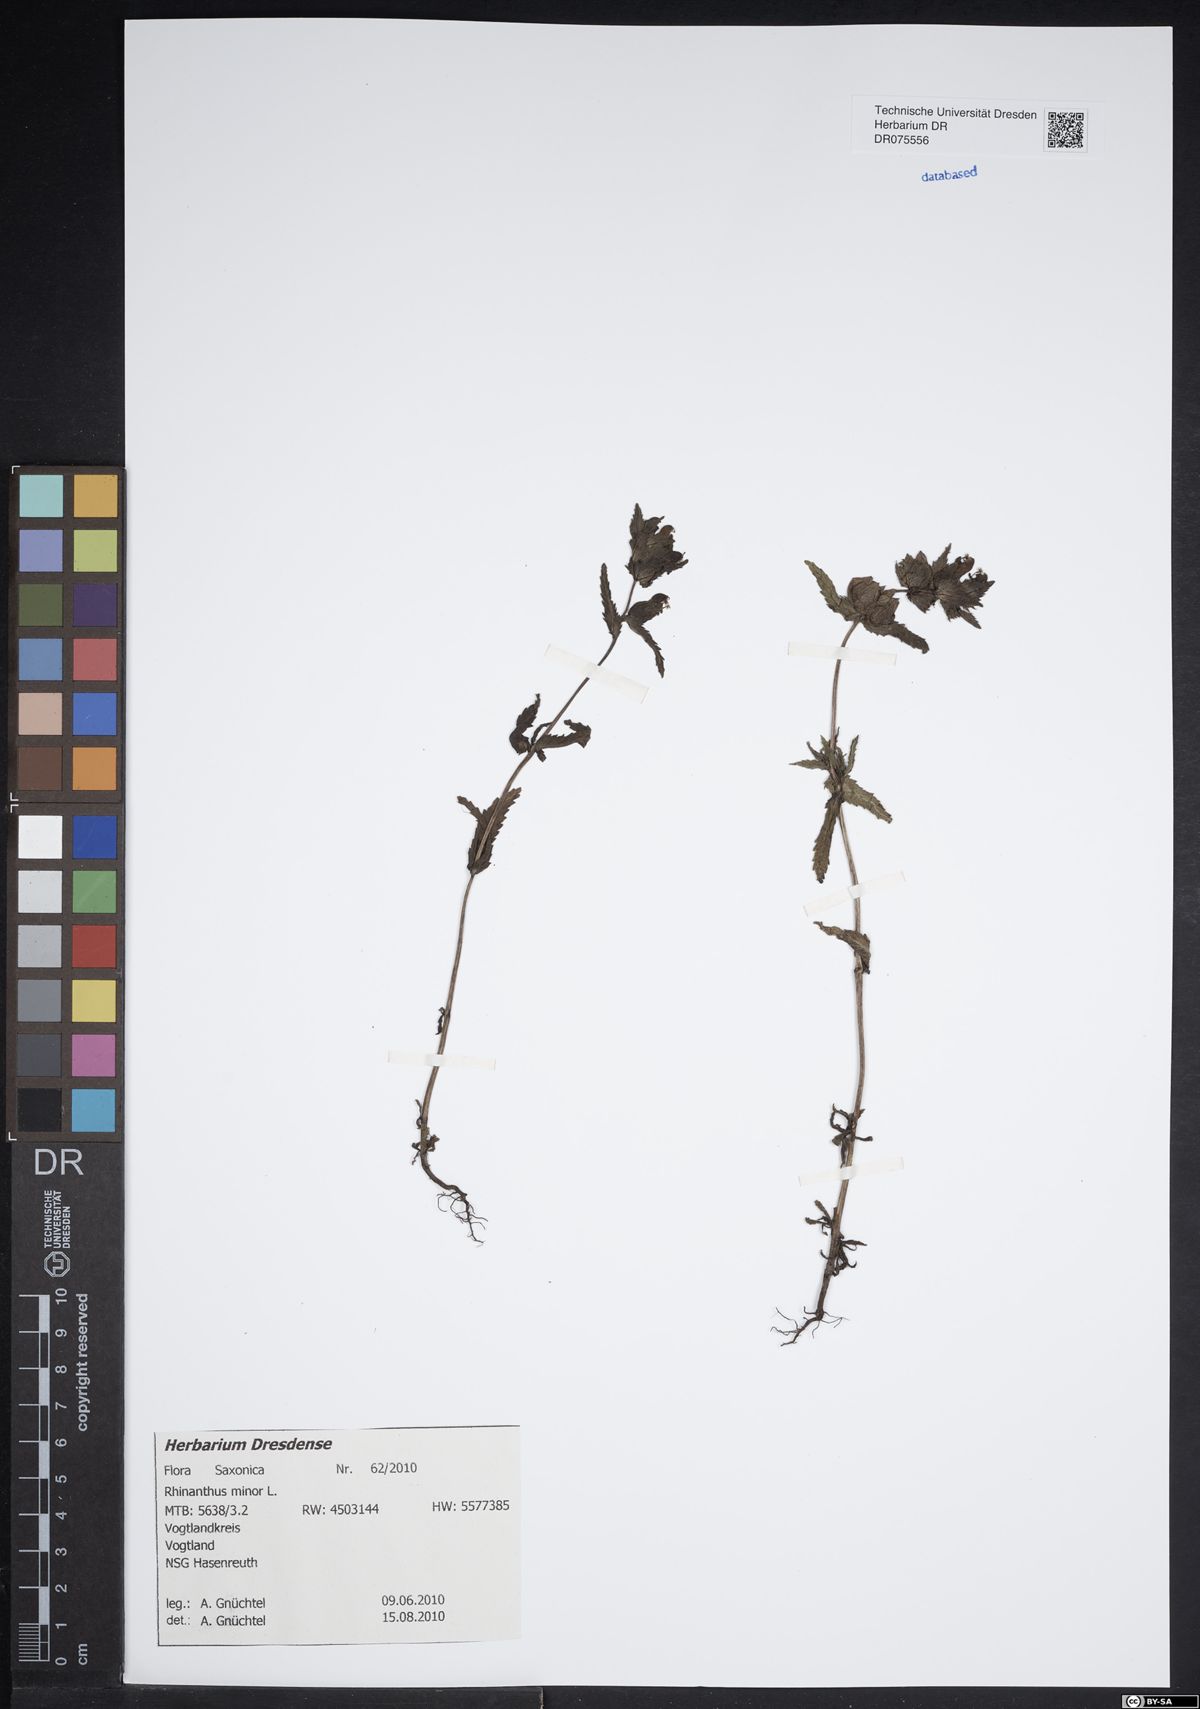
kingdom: Plantae
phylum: Tracheophyta
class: Magnoliopsida
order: Lamiales
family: Orobanchaceae
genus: Rhinanthus
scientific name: Rhinanthus minor
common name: Yellow-rattle
